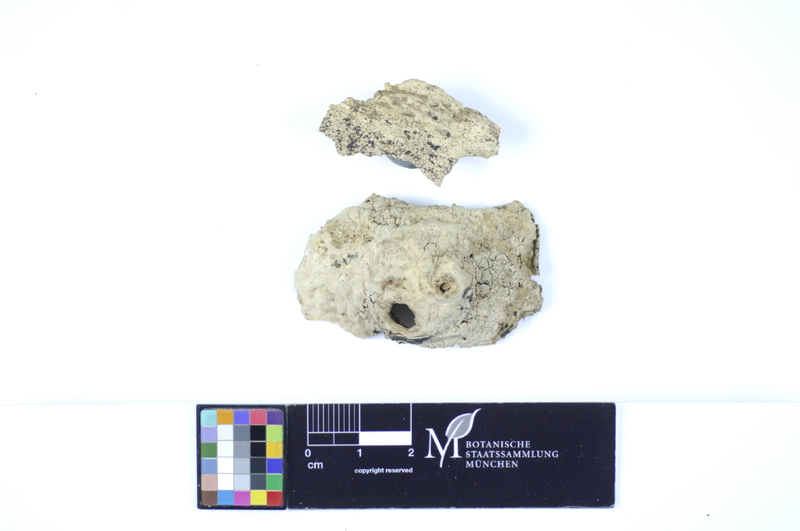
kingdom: Plantae
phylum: Tracheophyta
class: Magnoliopsida
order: Fagales
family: Fagaceae
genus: Fagus
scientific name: Fagus sylvatica
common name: Beech
